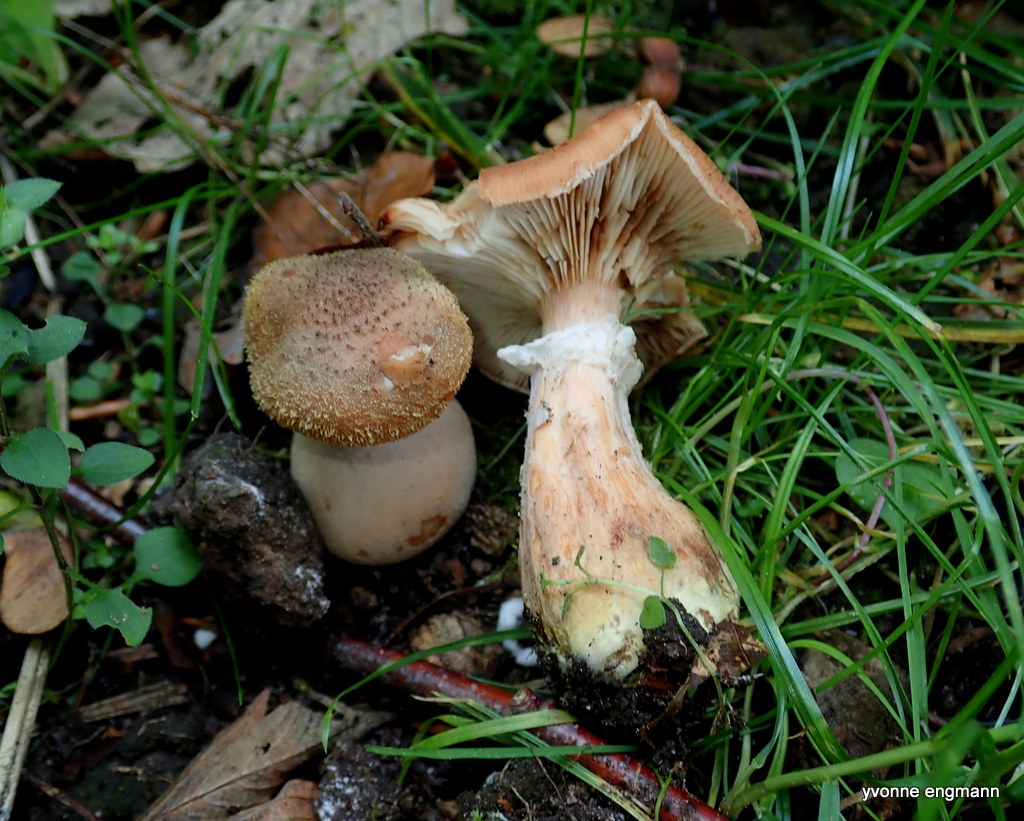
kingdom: Fungi
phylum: Basidiomycota
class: Agaricomycetes
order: Agaricales
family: Physalacriaceae
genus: Armillaria
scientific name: Armillaria lutea
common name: køllestokket honningsvamp
